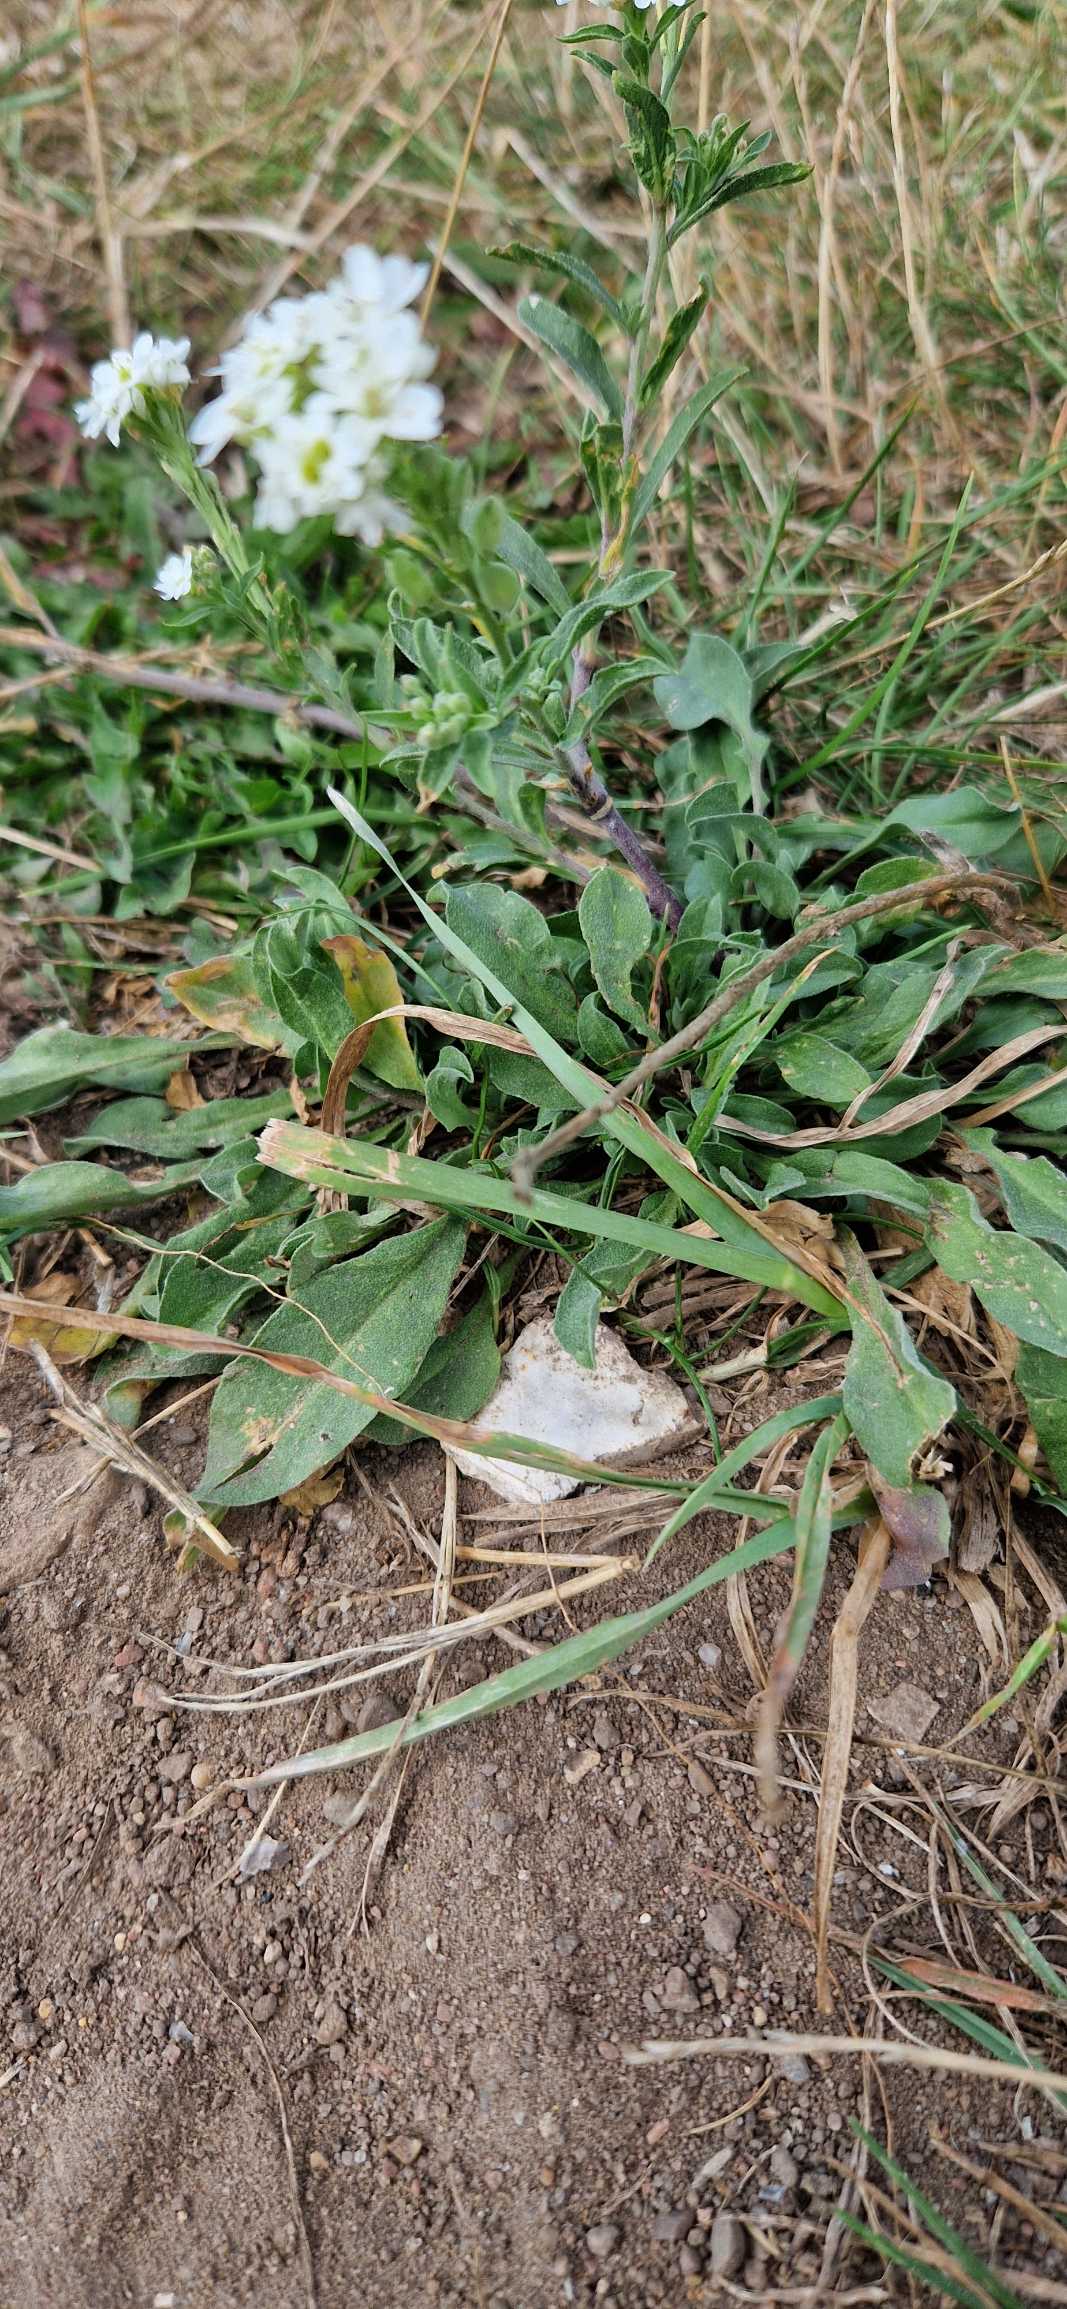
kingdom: Plantae
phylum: Tracheophyta
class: Magnoliopsida
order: Brassicales
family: Brassicaceae
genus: Berteroa
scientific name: Berteroa incana
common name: Kløvplade
